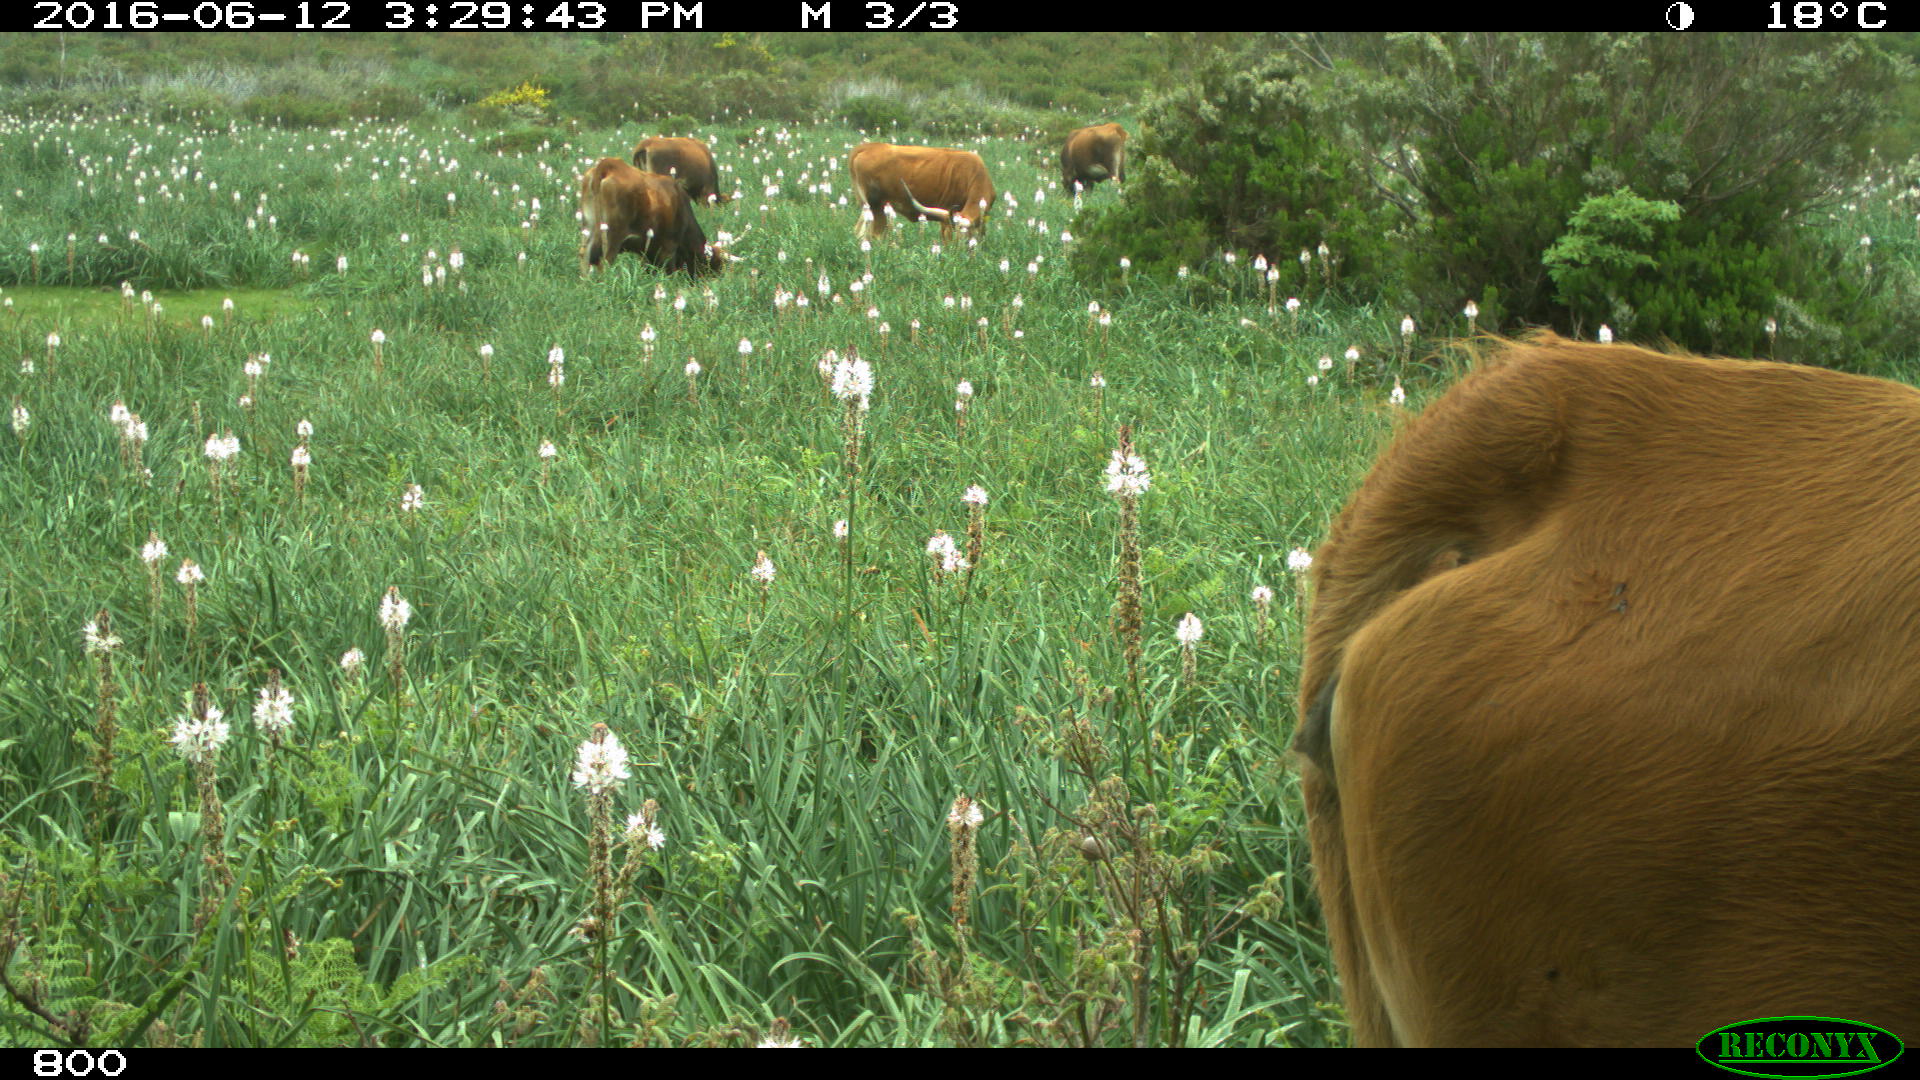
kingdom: Animalia
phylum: Chordata
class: Mammalia
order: Artiodactyla
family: Bovidae
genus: Bos
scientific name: Bos taurus
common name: Domesticated cattle
